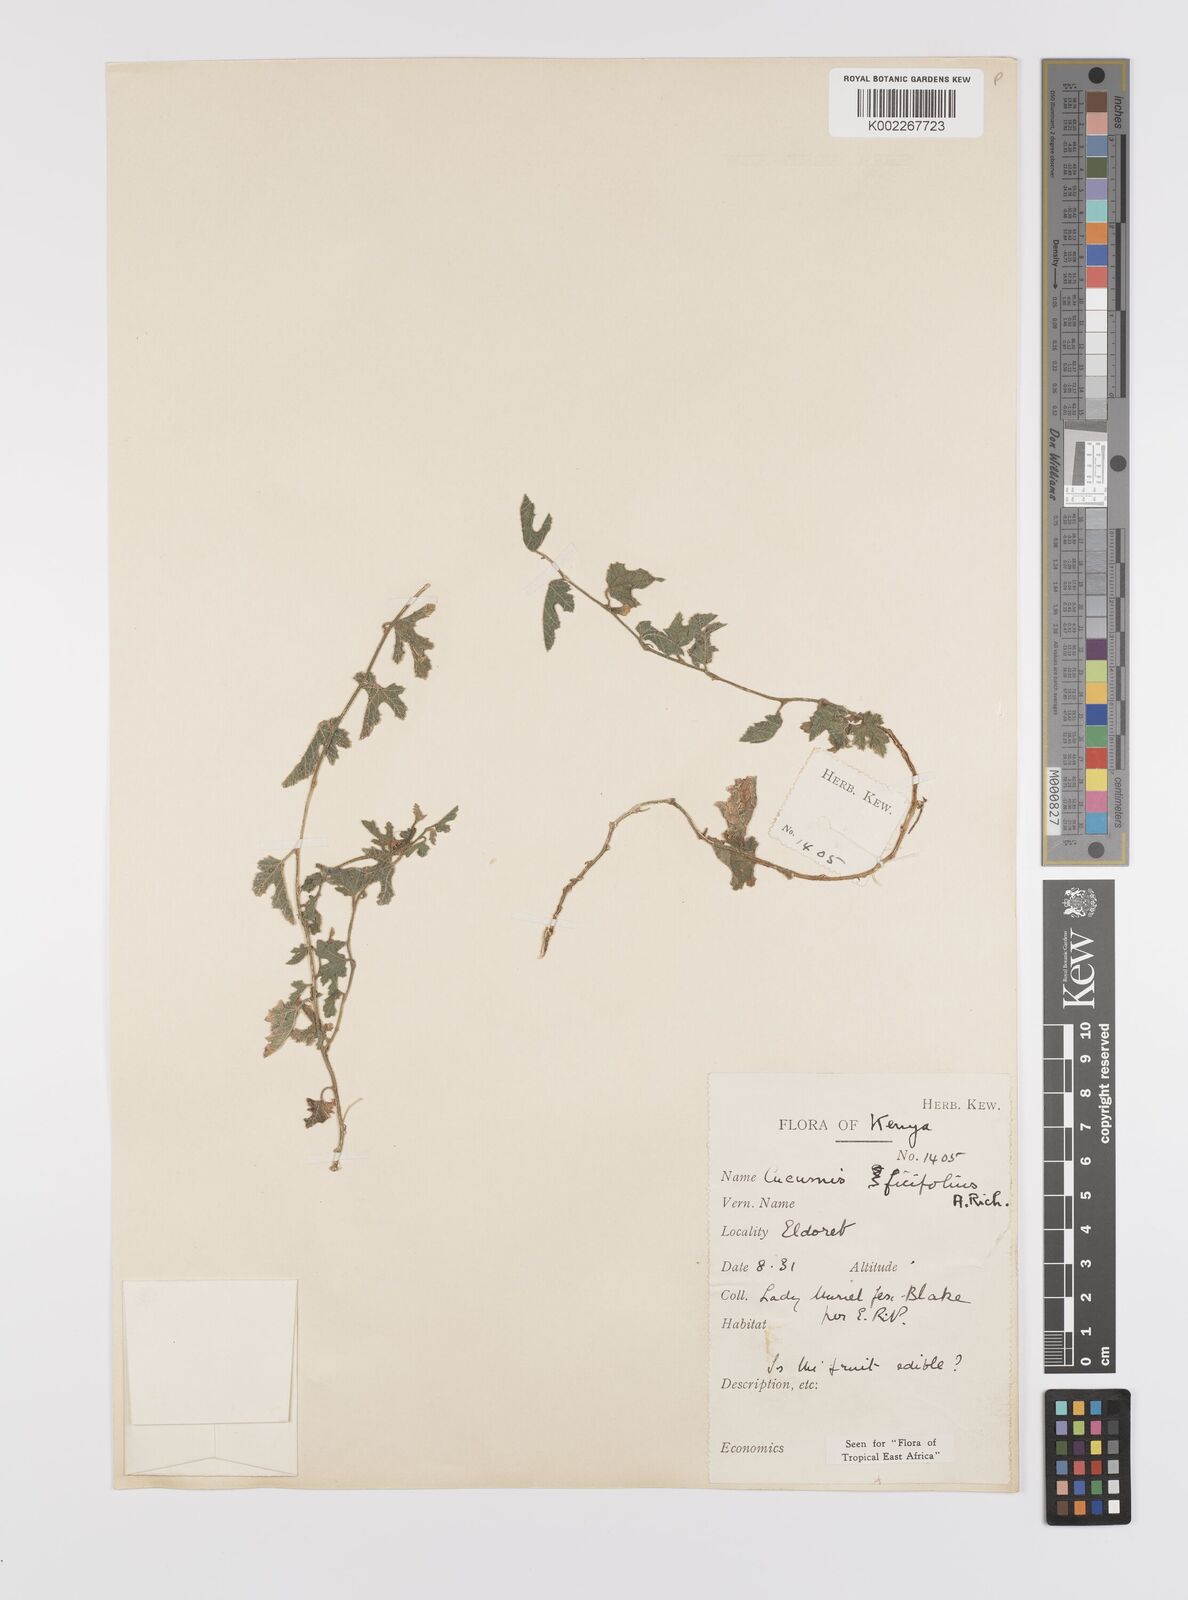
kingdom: Plantae
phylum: Tracheophyta
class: Magnoliopsida
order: Cucurbitales
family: Cucurbitaceae
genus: Cucumis
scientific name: Cucumis ficifolius
